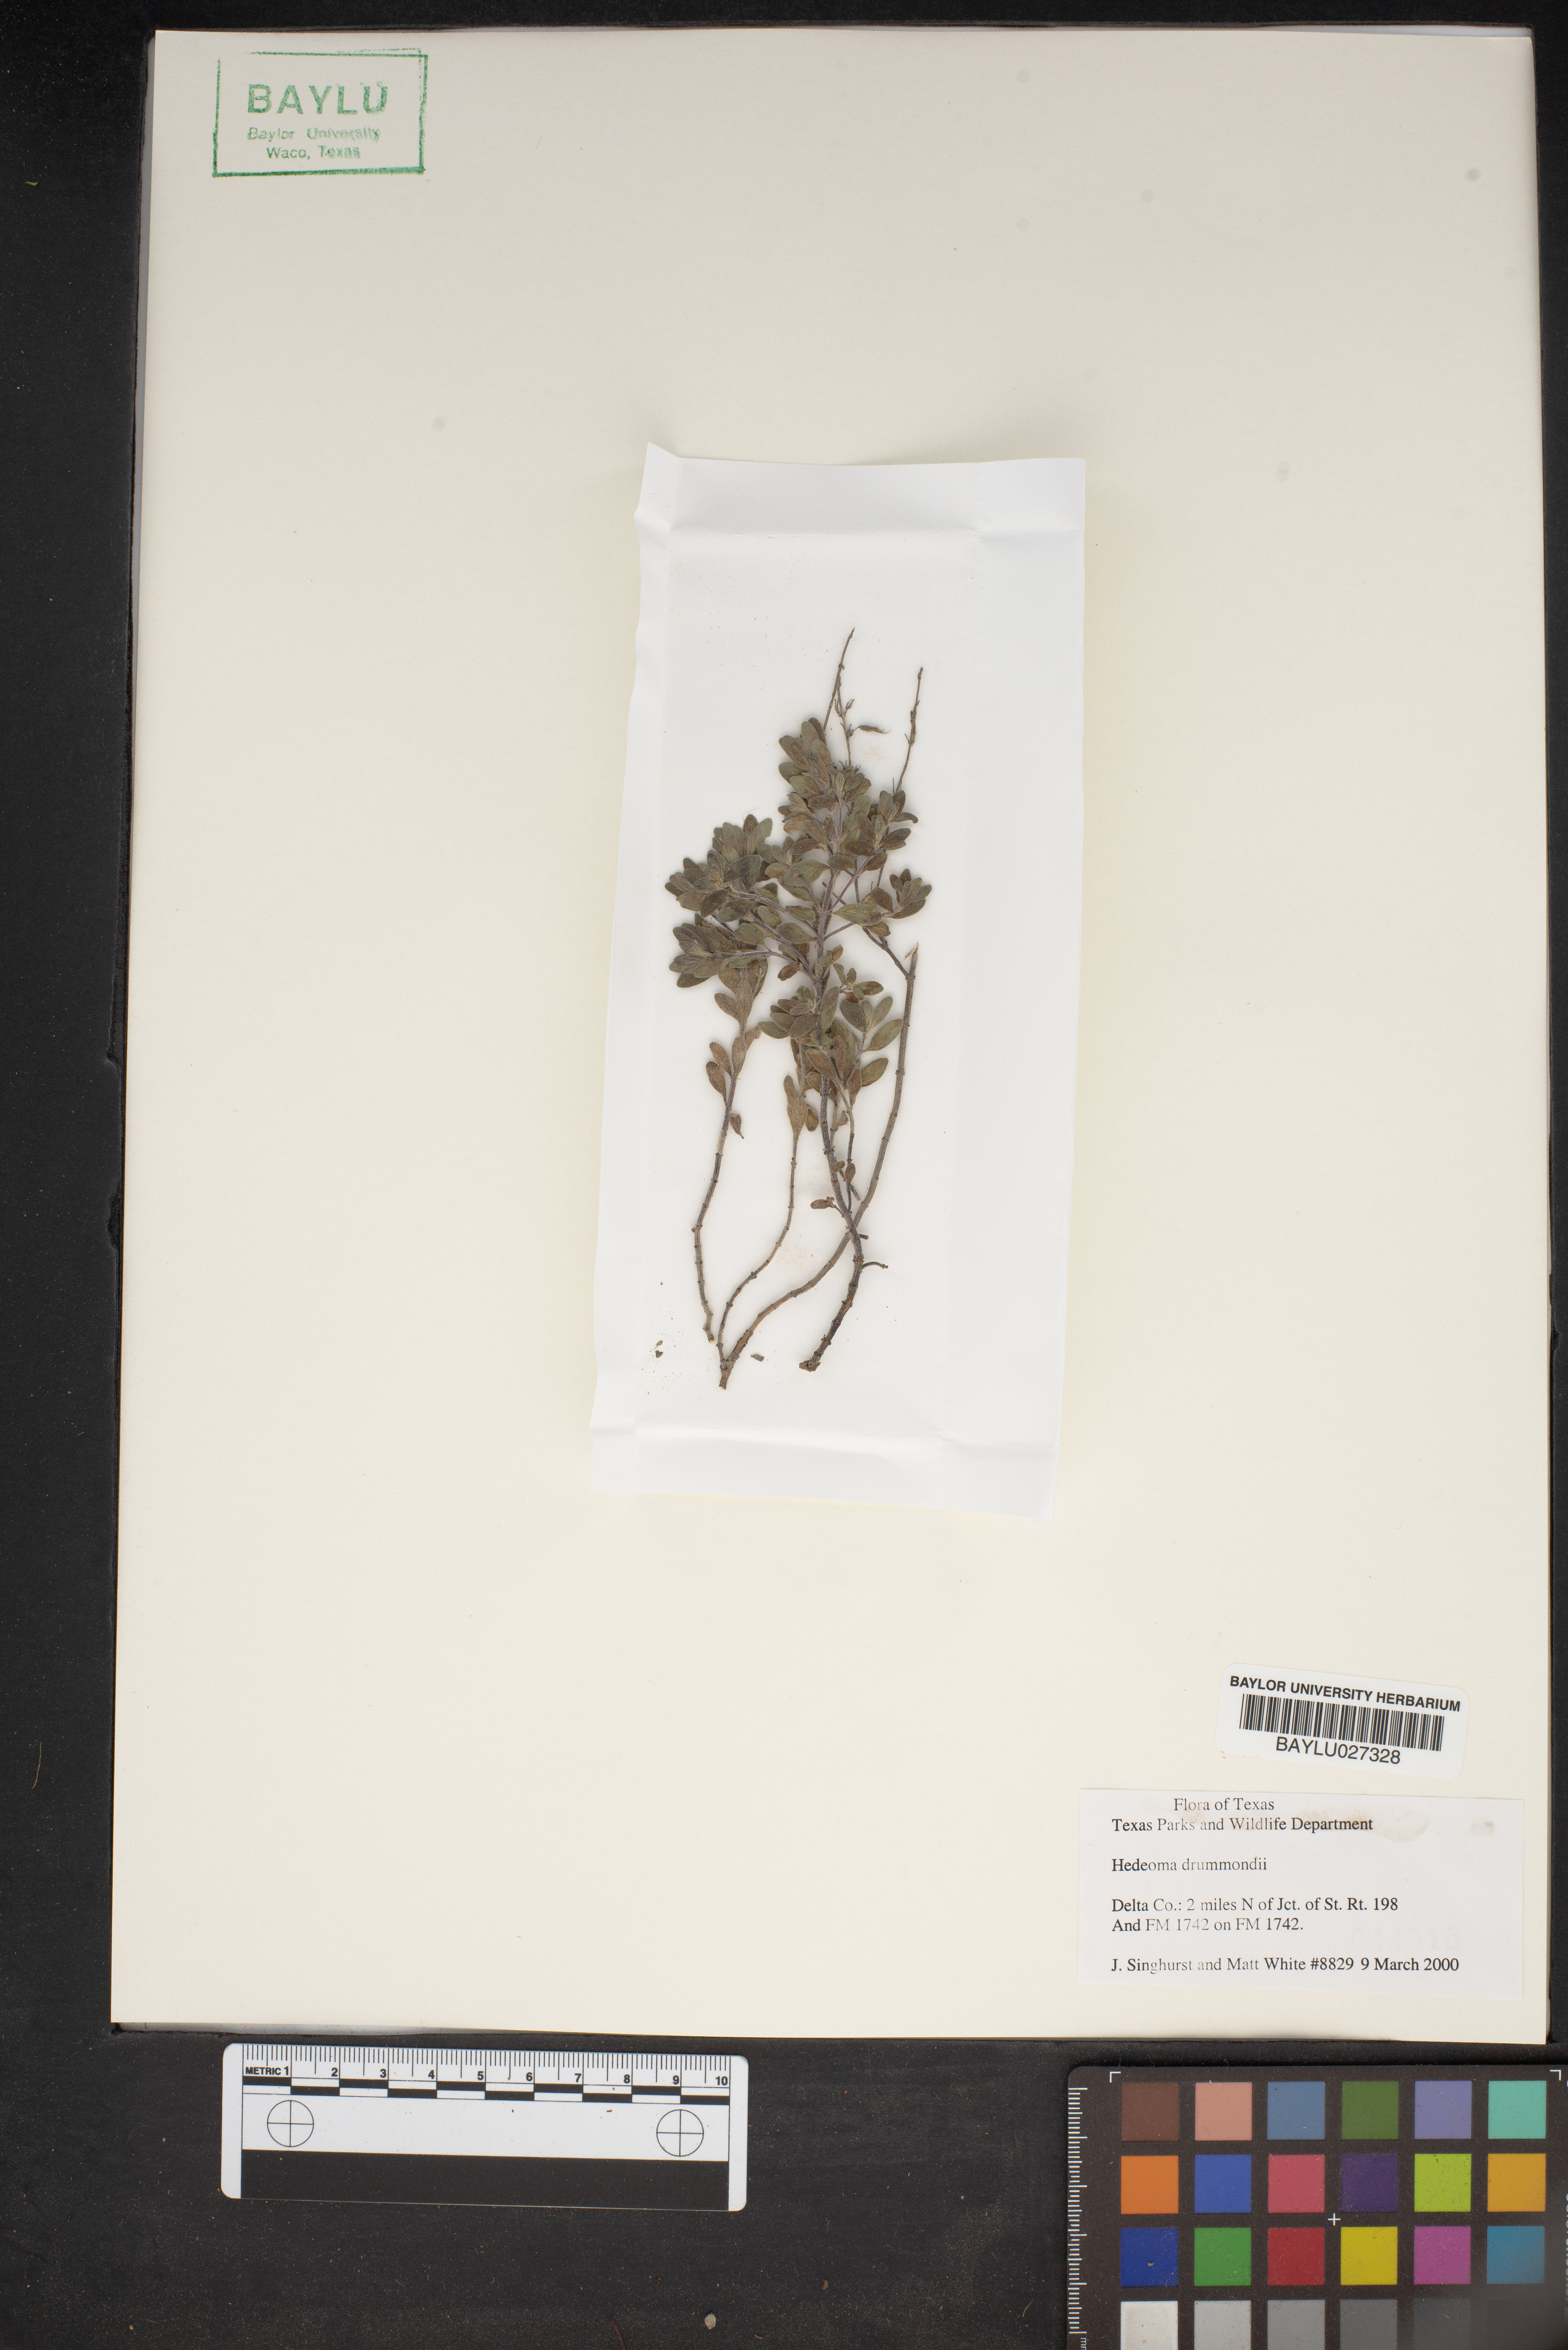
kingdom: Plantae
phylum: Tracheophyta
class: Magnoliopsida
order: Lamiales
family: Lamiaceae
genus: Hedeoma
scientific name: Hedeoma drummondii
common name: New mexico pennyroyal
